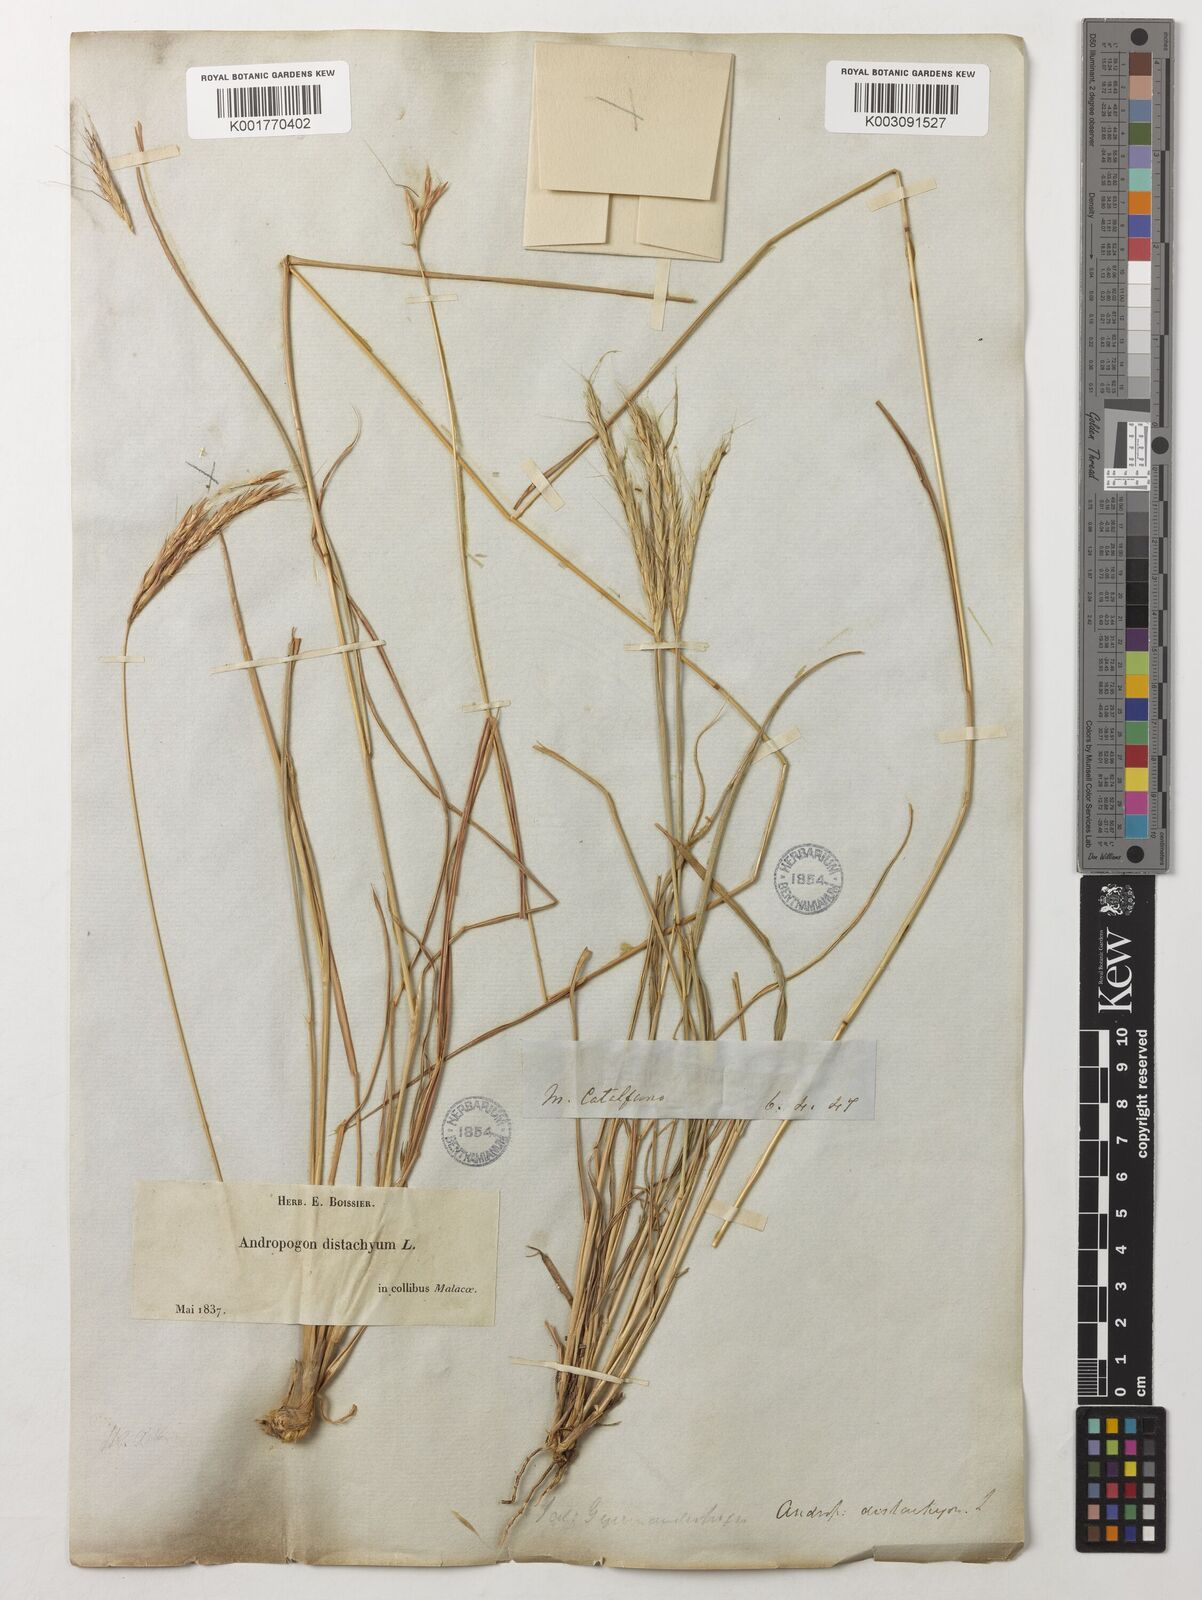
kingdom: Plantae
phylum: Tracheophyta
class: Liliopsida
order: Poales
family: Poaceae
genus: Andropogon
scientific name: Andropogon distachyos
